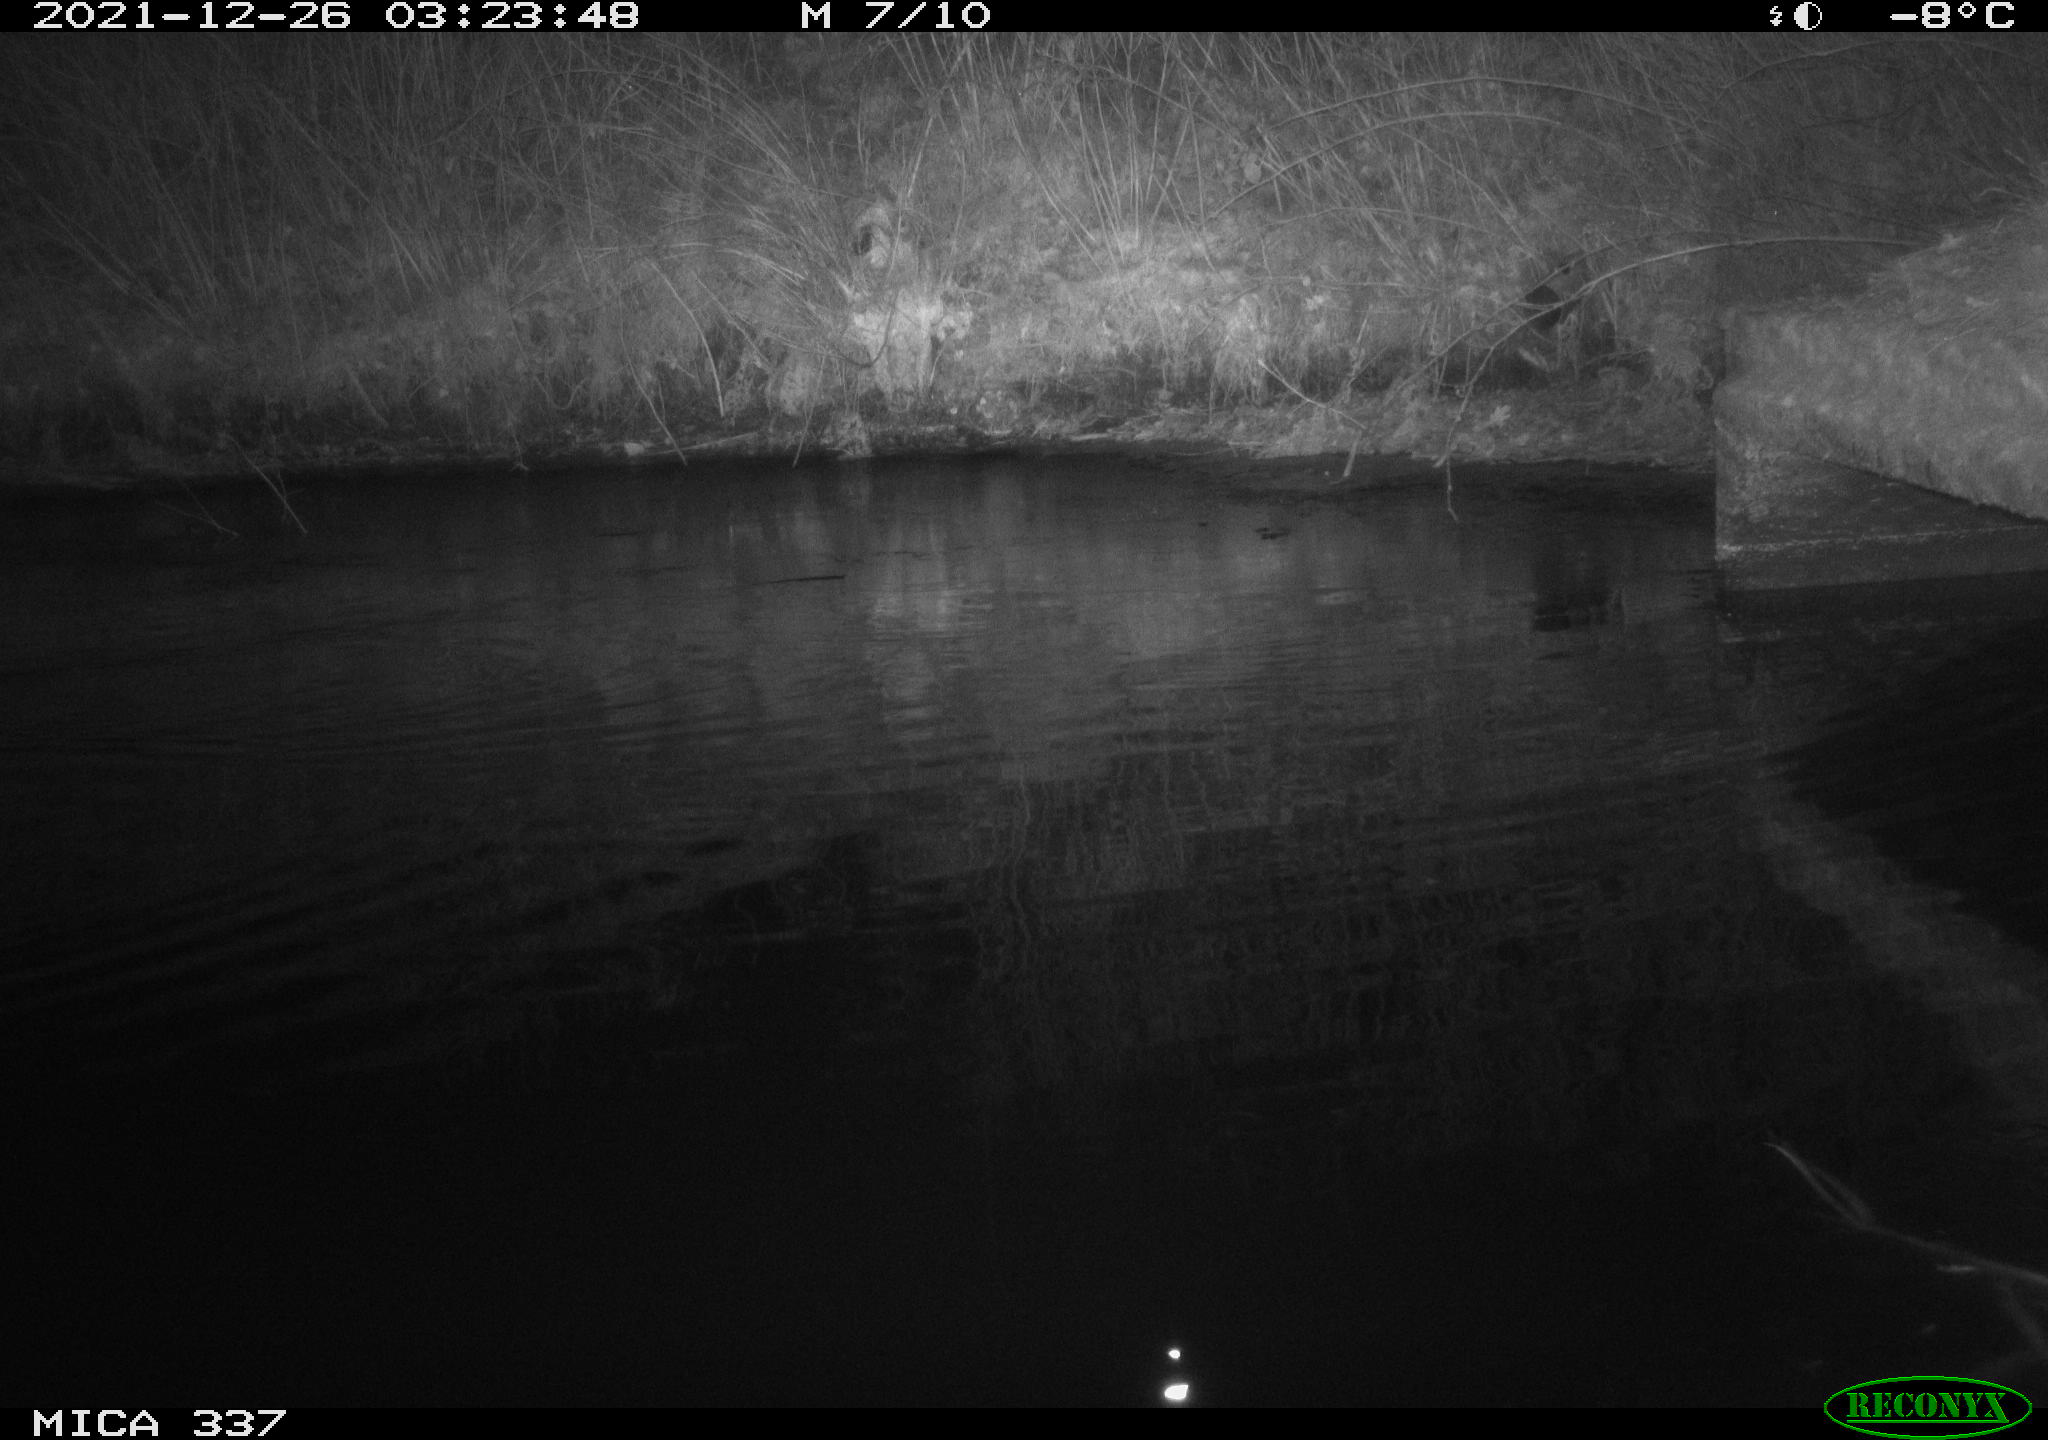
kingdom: Animalia
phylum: Chordata
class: Aves
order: Anseriformes
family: Anatidae
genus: Anas
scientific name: Anas platyrhynchos
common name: Mallard
